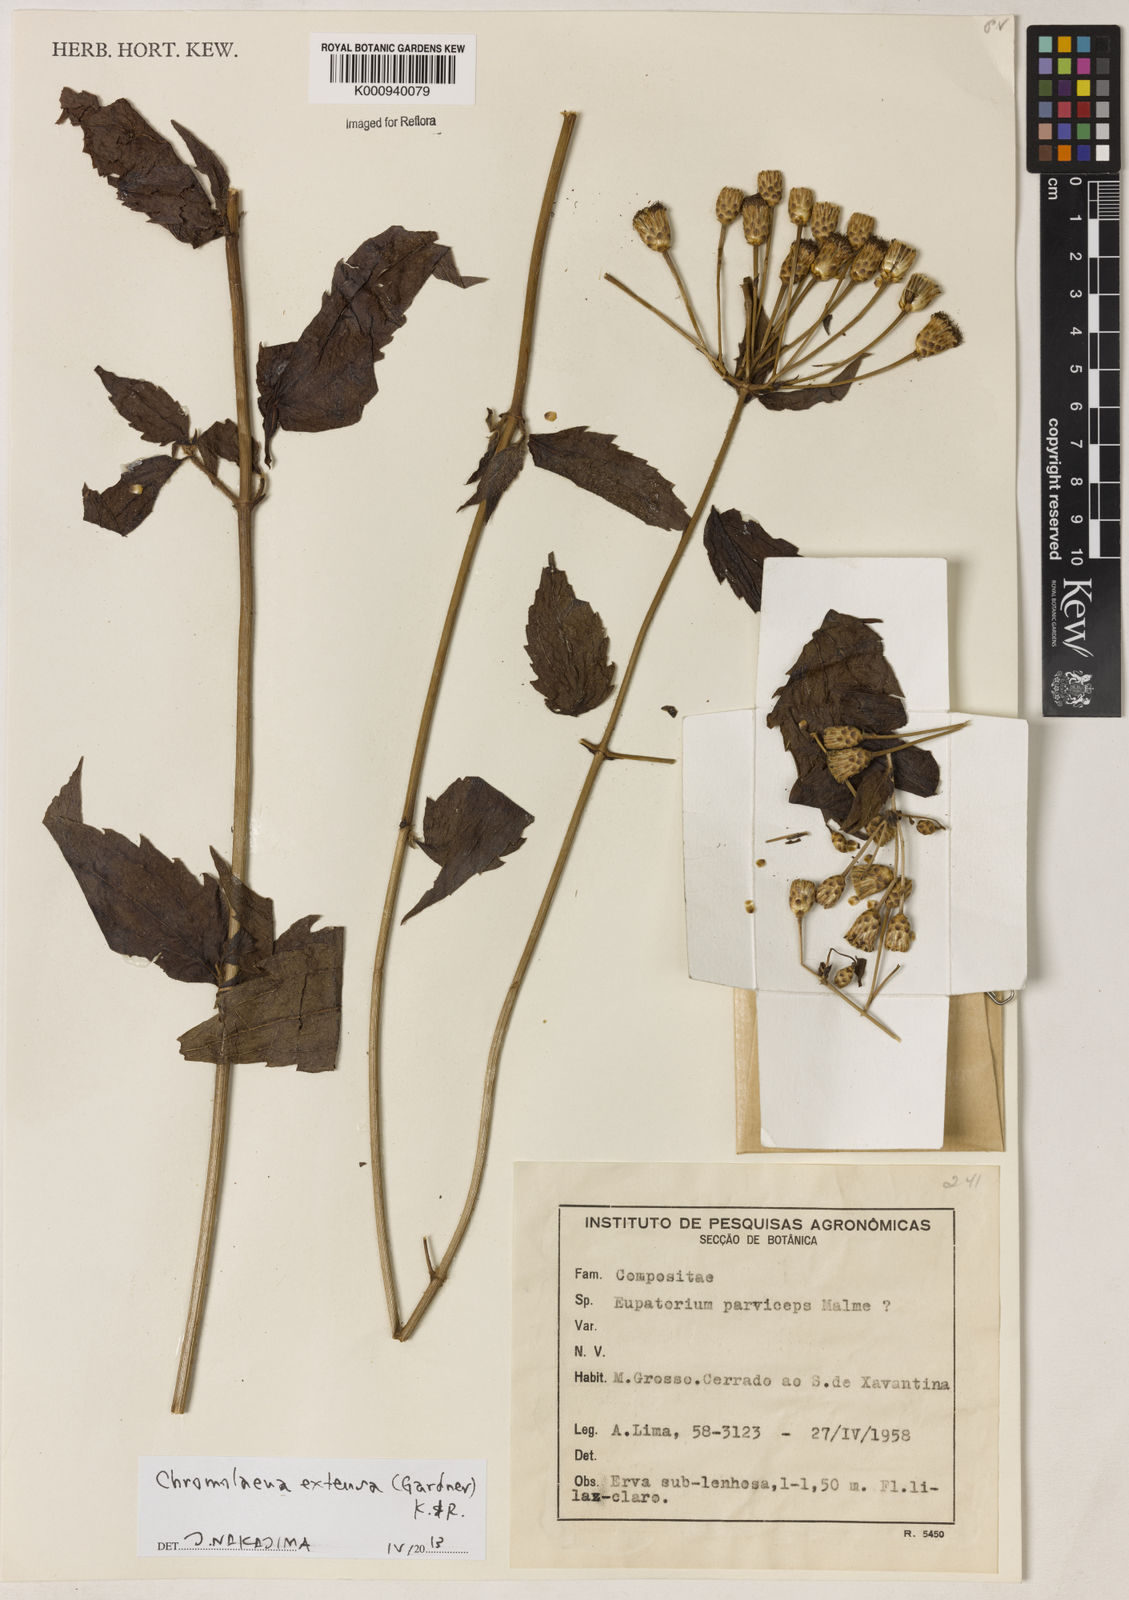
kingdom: Plantae
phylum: Tracheophyta
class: Magnoliopsida
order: Asterales
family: Asteraceae
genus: Chromolaena
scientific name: Chromolaena extensa
